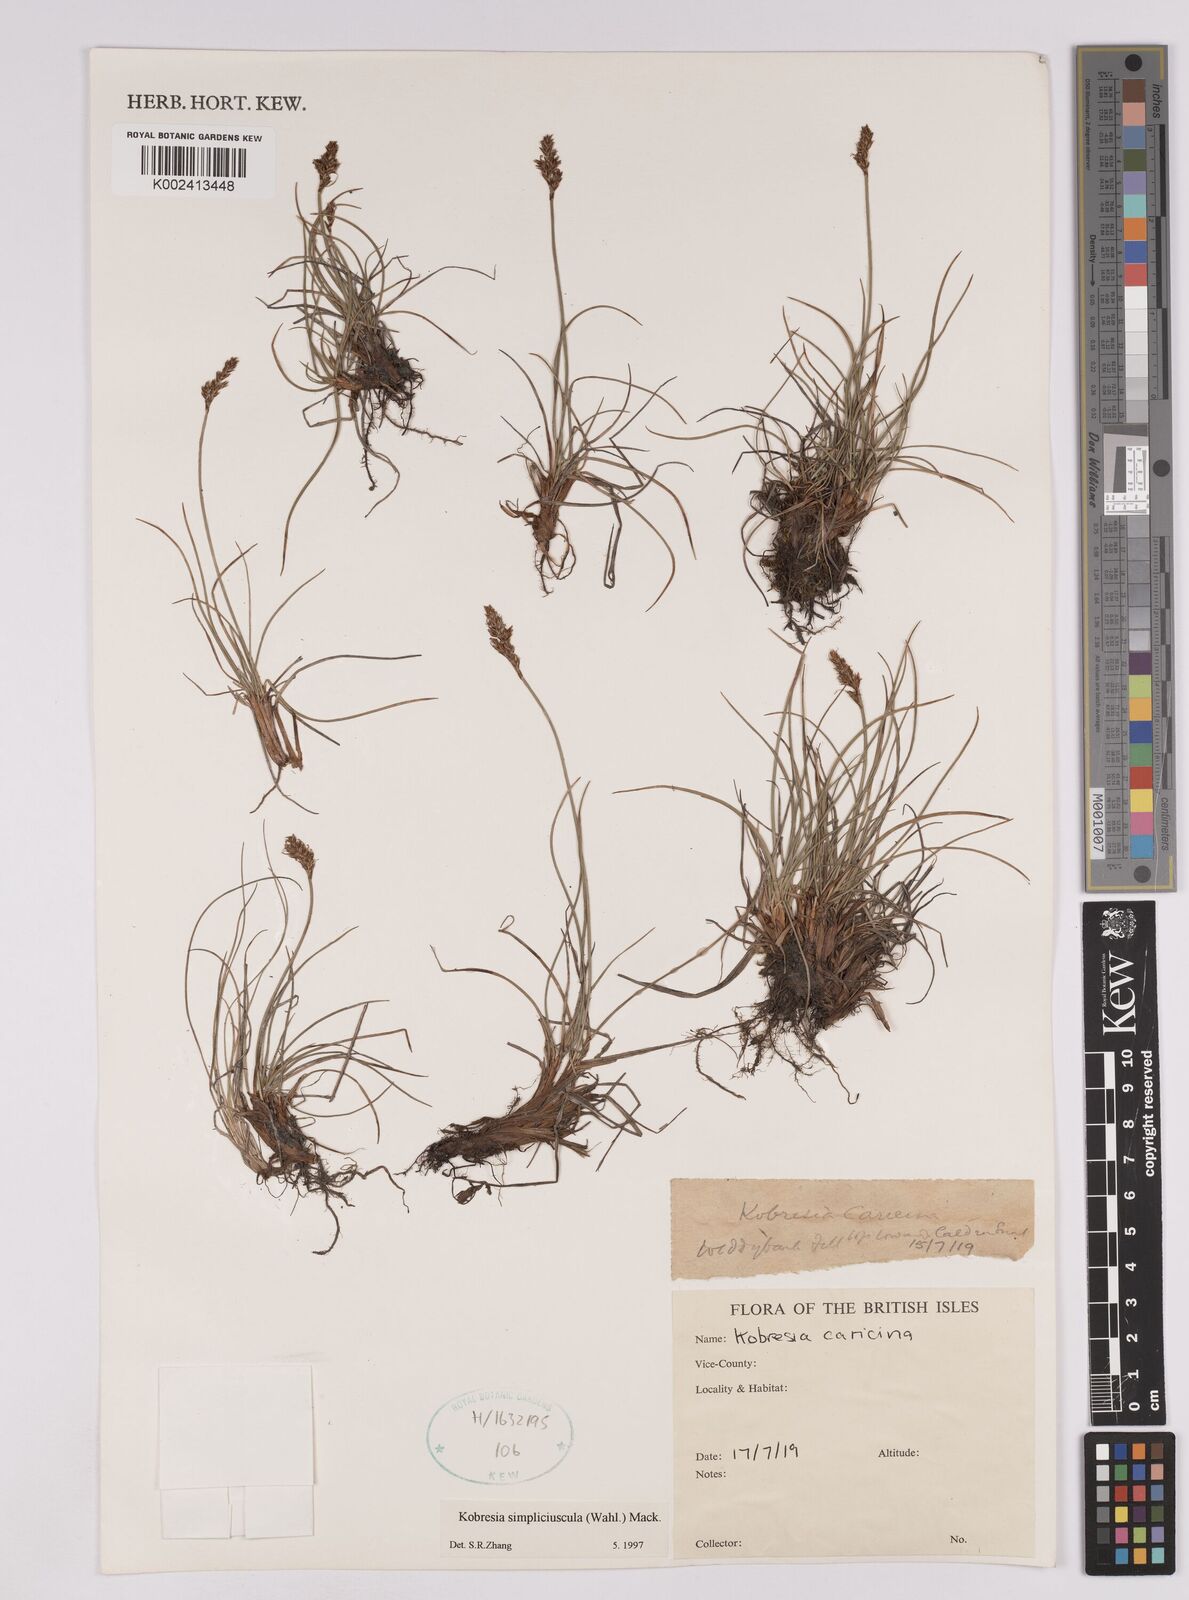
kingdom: Plantae
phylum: Tracheophyta
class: Liliopsida
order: Poales
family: Cyperaceae
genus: Carex
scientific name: Carex simpliciuscula
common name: Simple bog sedge
